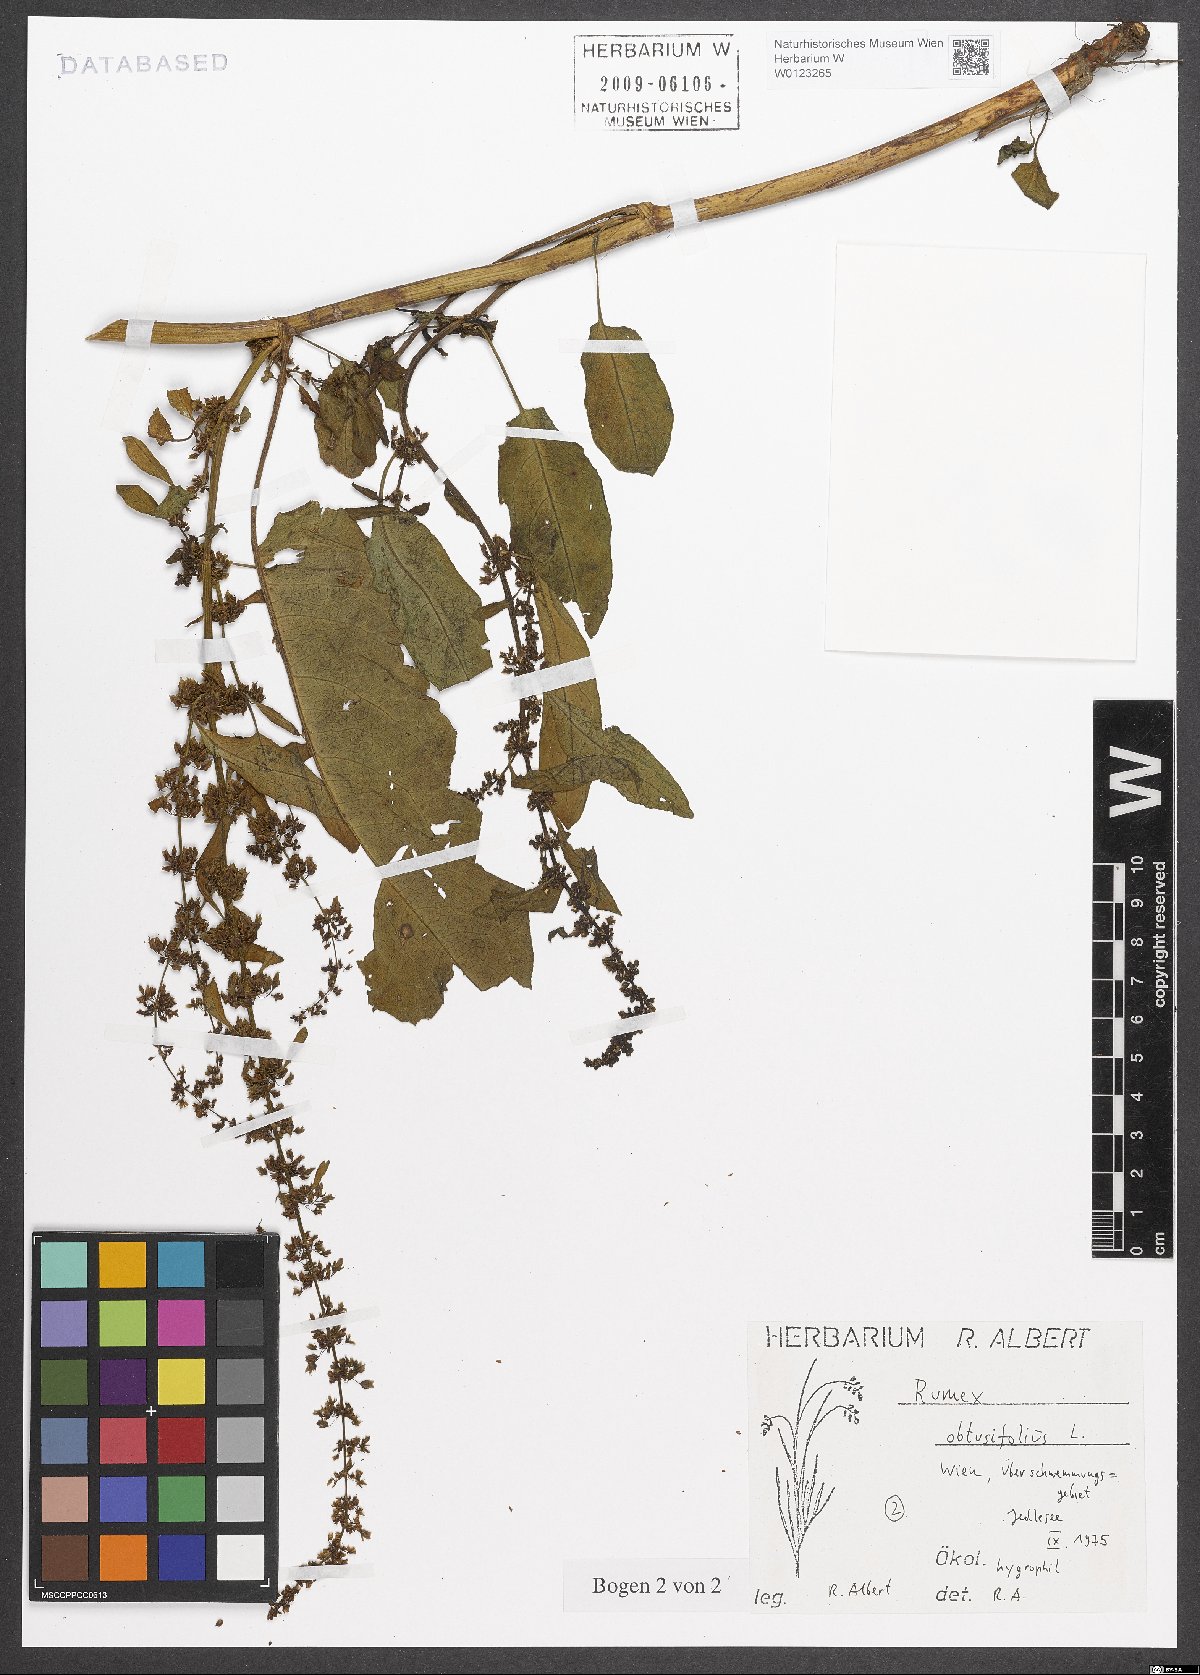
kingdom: Plantae
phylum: Tracheophyta
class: Magnoliopsida
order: Caryophyllales
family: Polygonaceae
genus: Rumex
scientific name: Rumex obtusifolius
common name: Bitter dock
